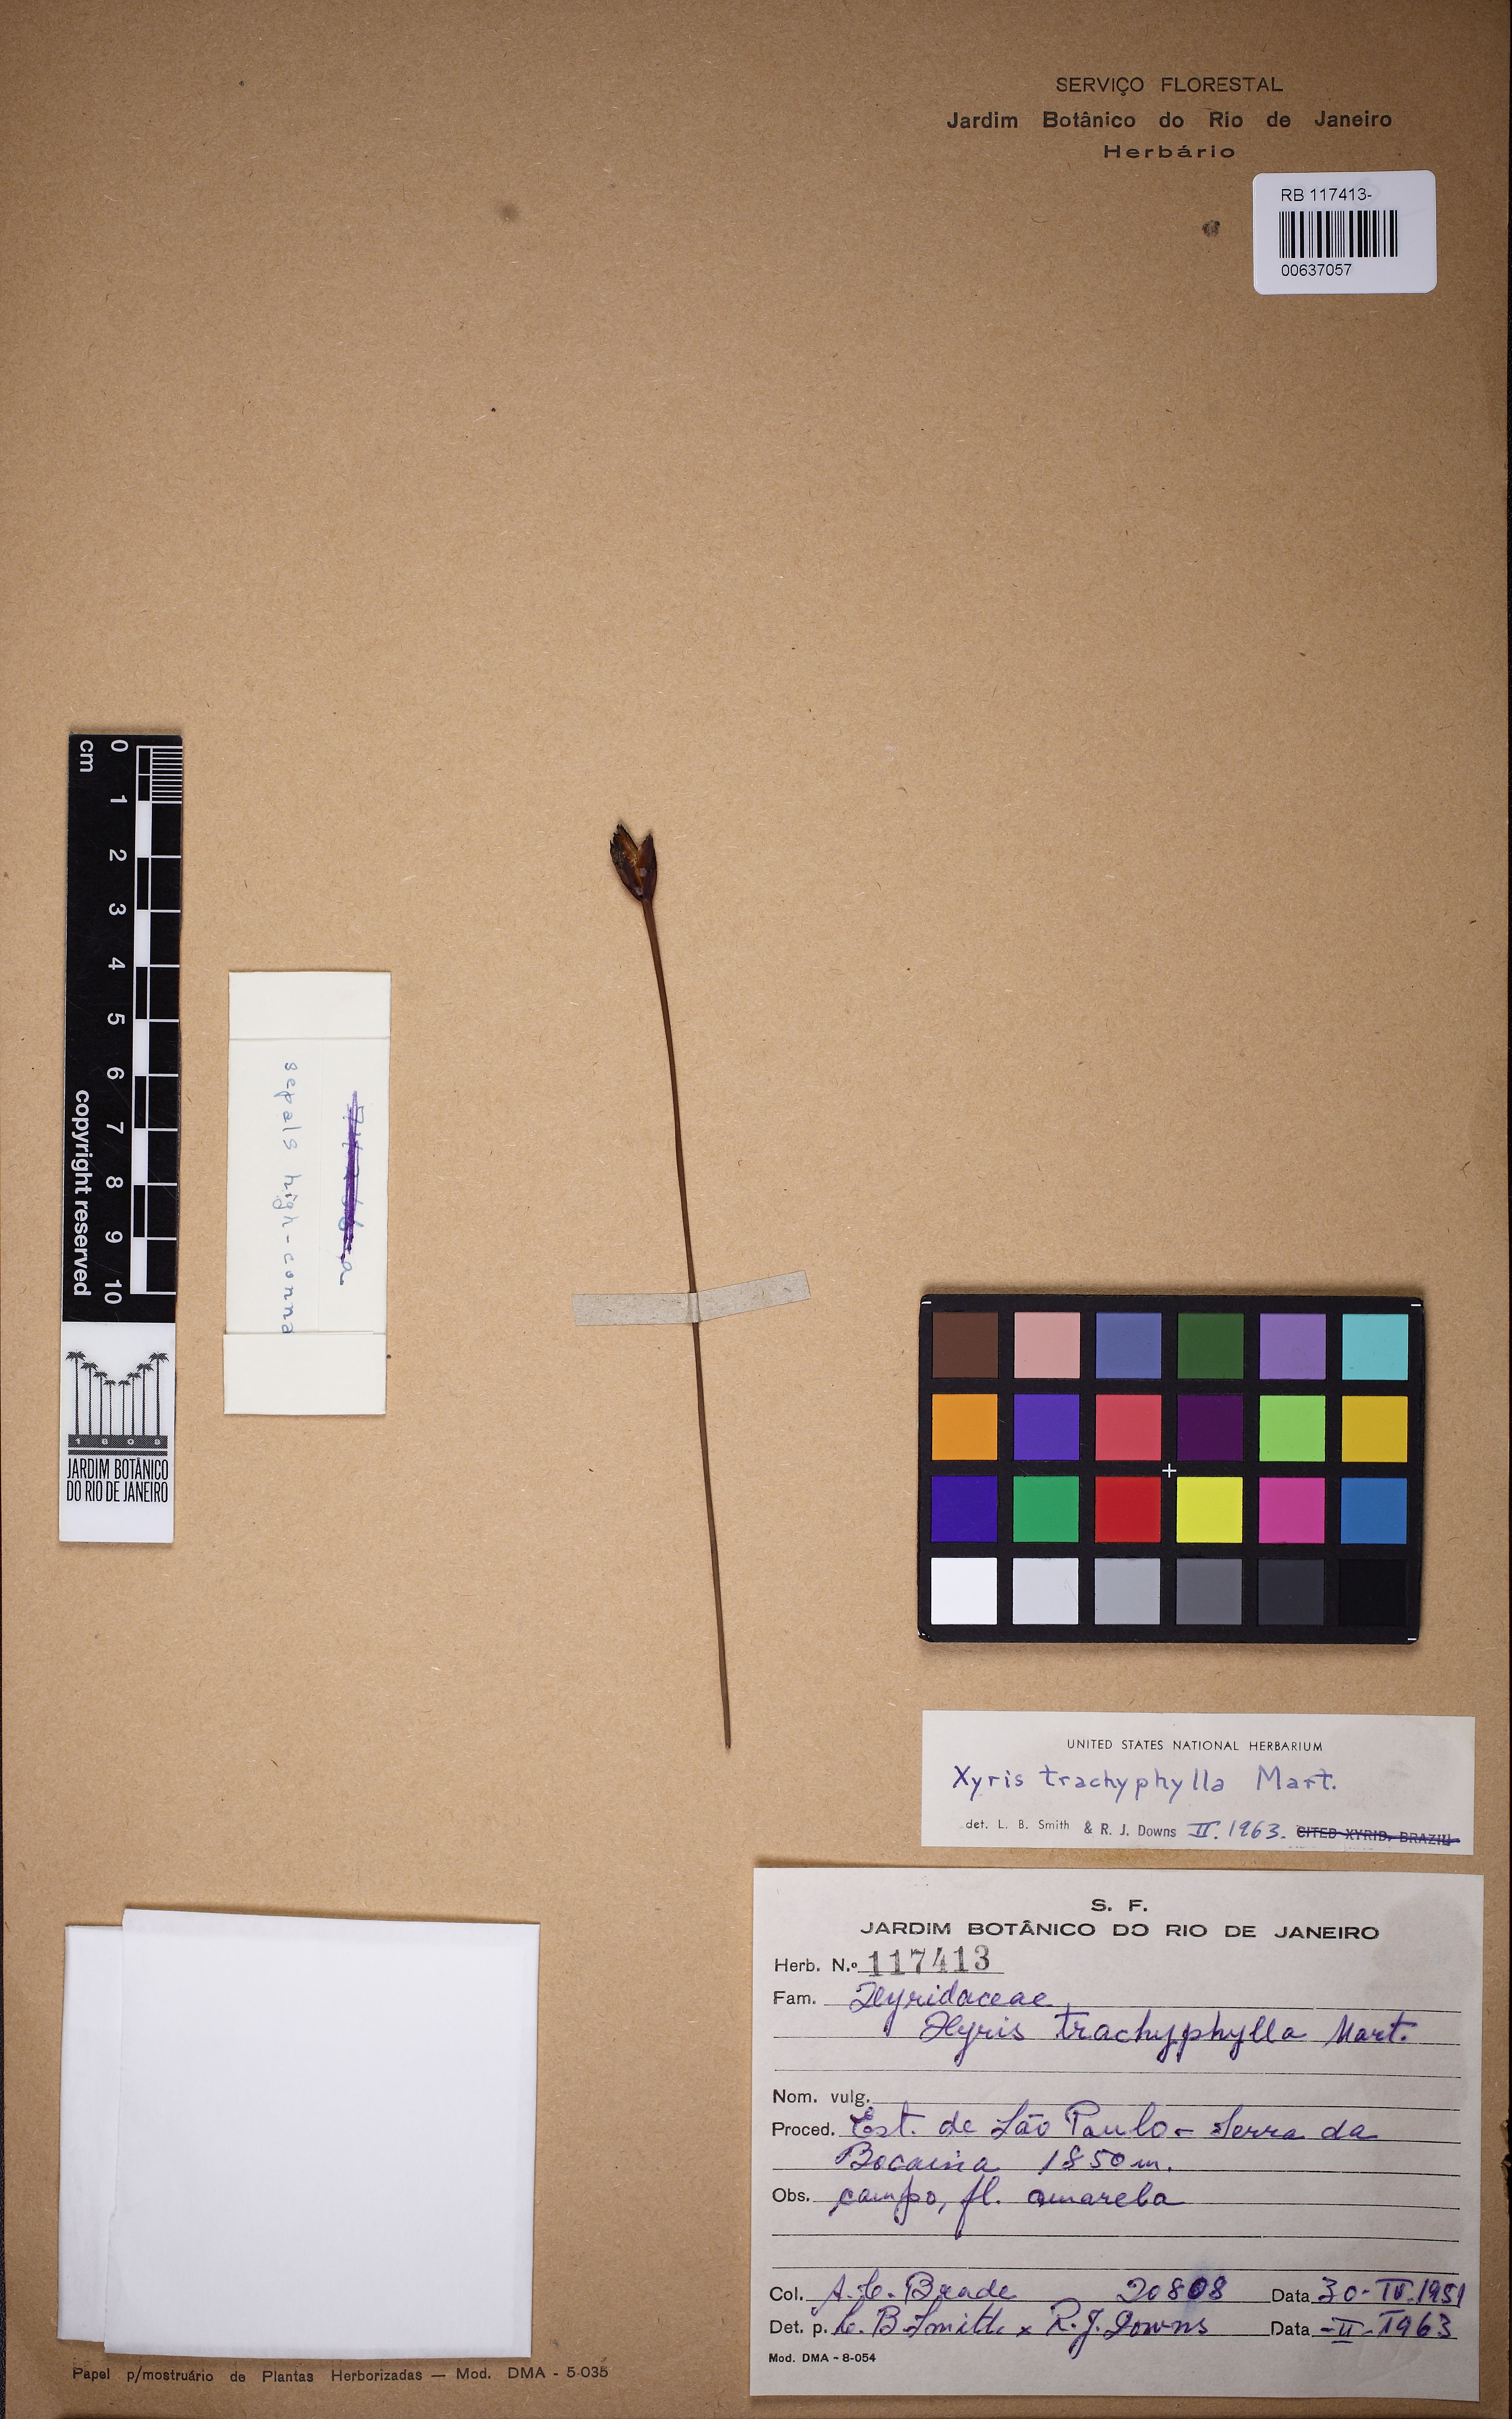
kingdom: Plantae
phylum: Tracheophyta
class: Liliopsida
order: Poales
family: Xyridaceae
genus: Xyris
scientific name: Xyris trachyphylla
